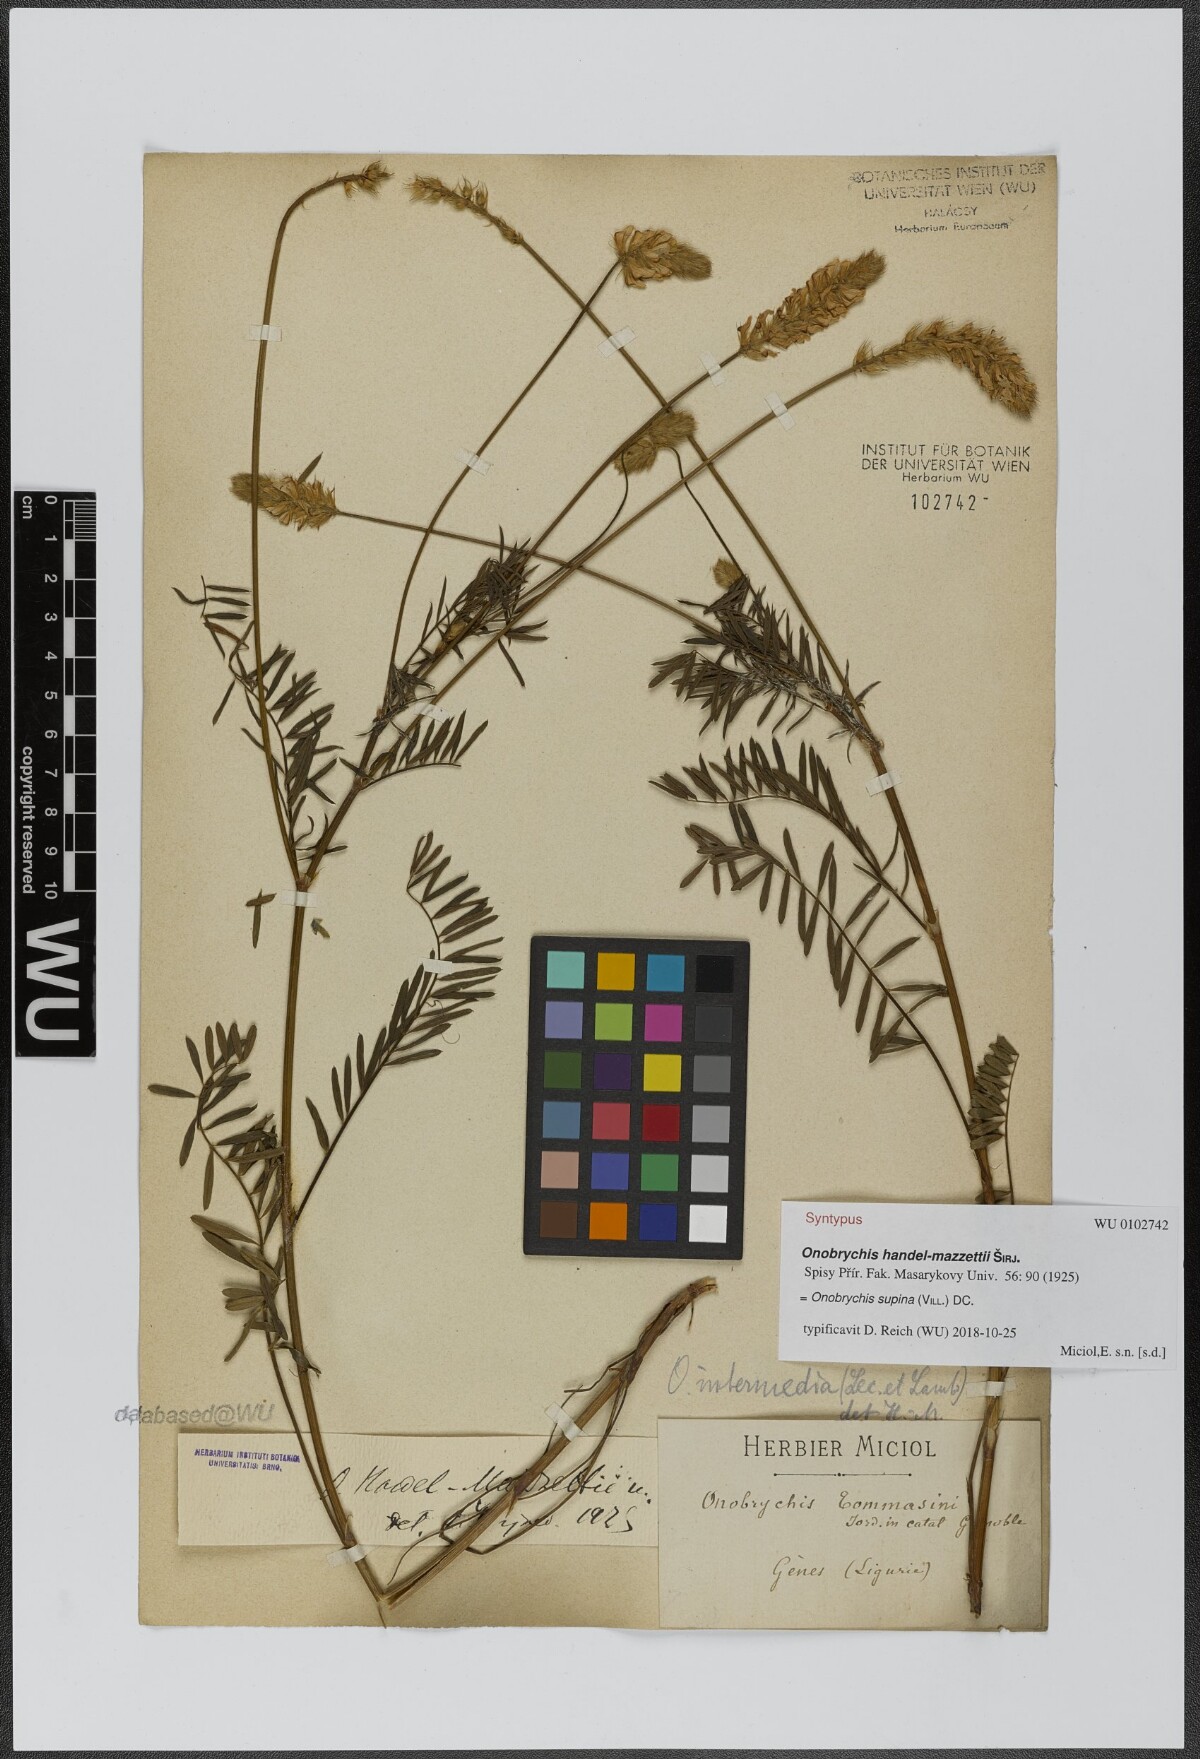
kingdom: Plantae
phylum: Tracheophyta
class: Magnoliopsida
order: Fabales
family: Fabaceae
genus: Onobrychis
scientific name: Onobrychis supina
